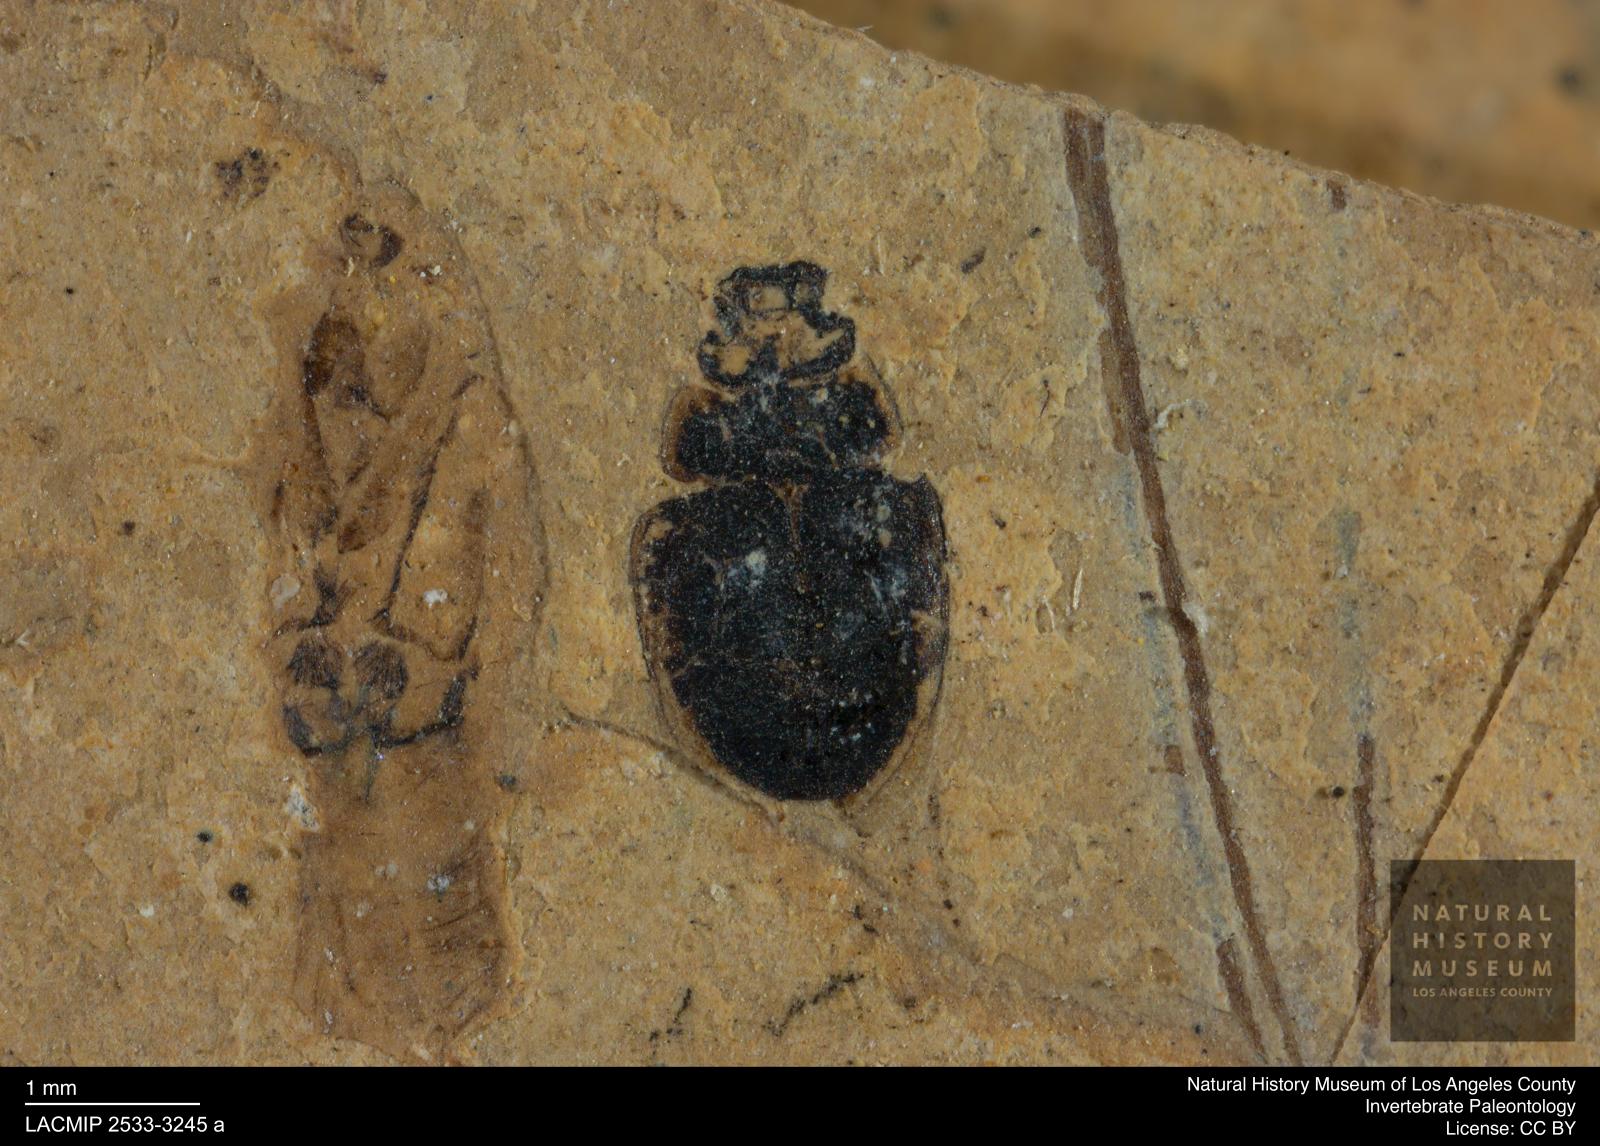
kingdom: Animalia
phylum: Arthropoda
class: Insecta
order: Coleoptera
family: Hydrophilidae
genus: Paracymus
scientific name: Paracymus excitatus
